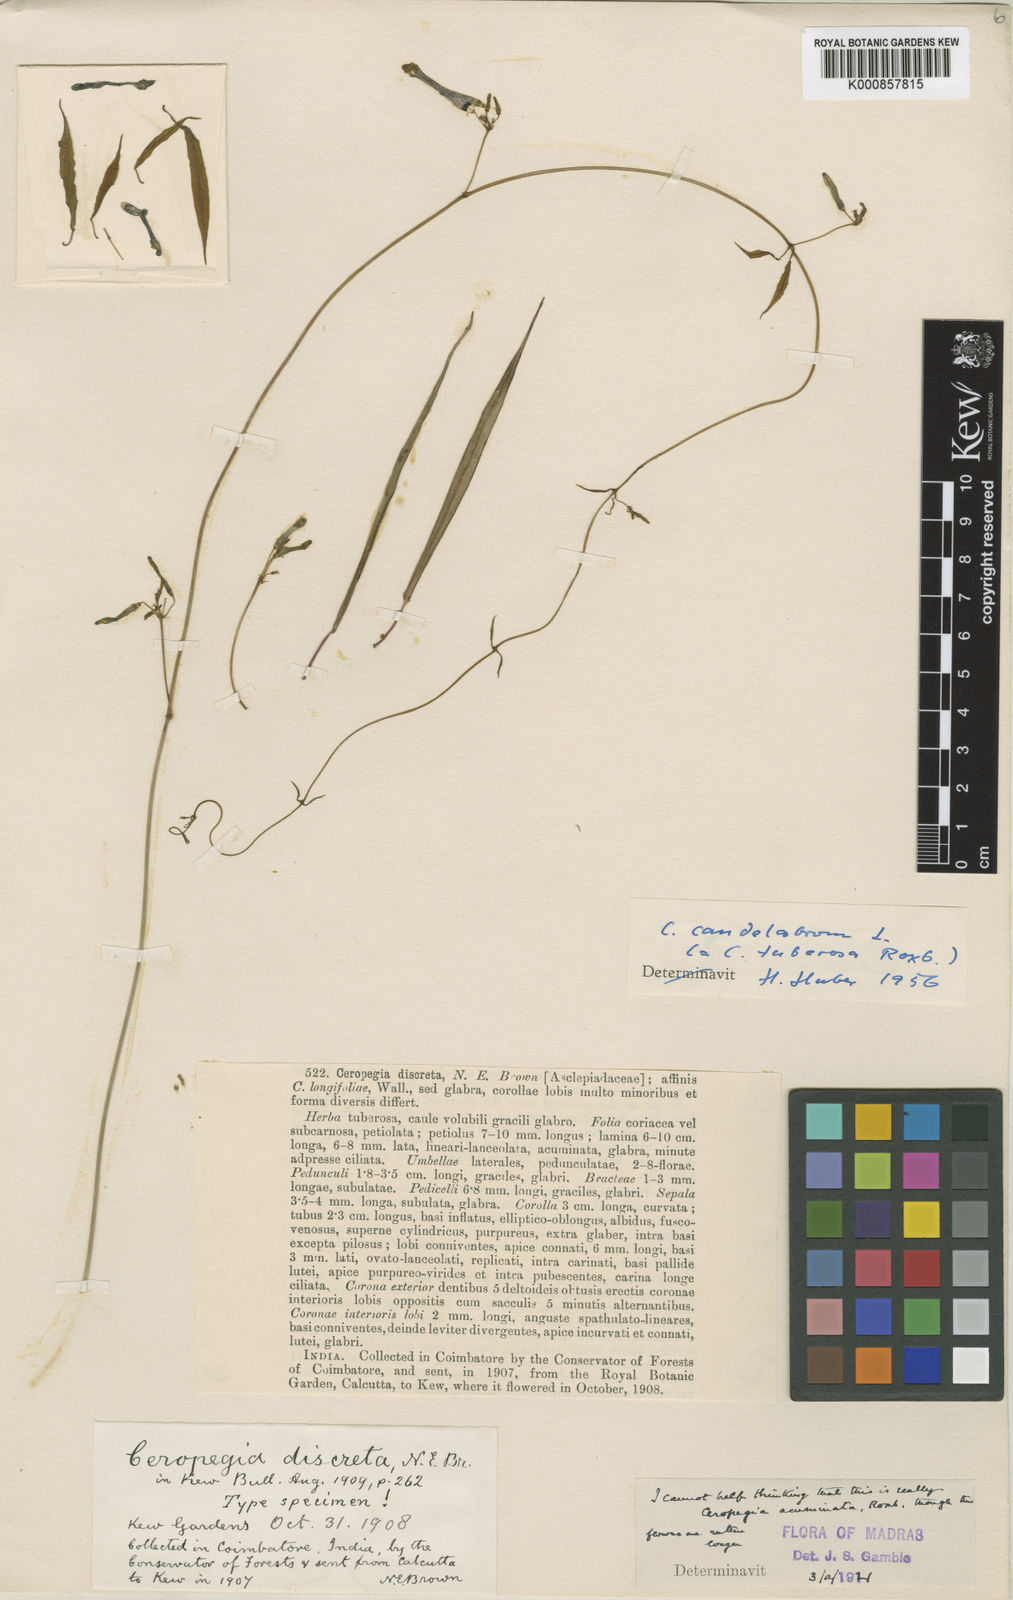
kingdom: Plantae
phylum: Tracheophyta
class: Magnoliopsida
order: Gentianales
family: Apocynaceae
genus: Ceropegia
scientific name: Ceropegia candelabrum
